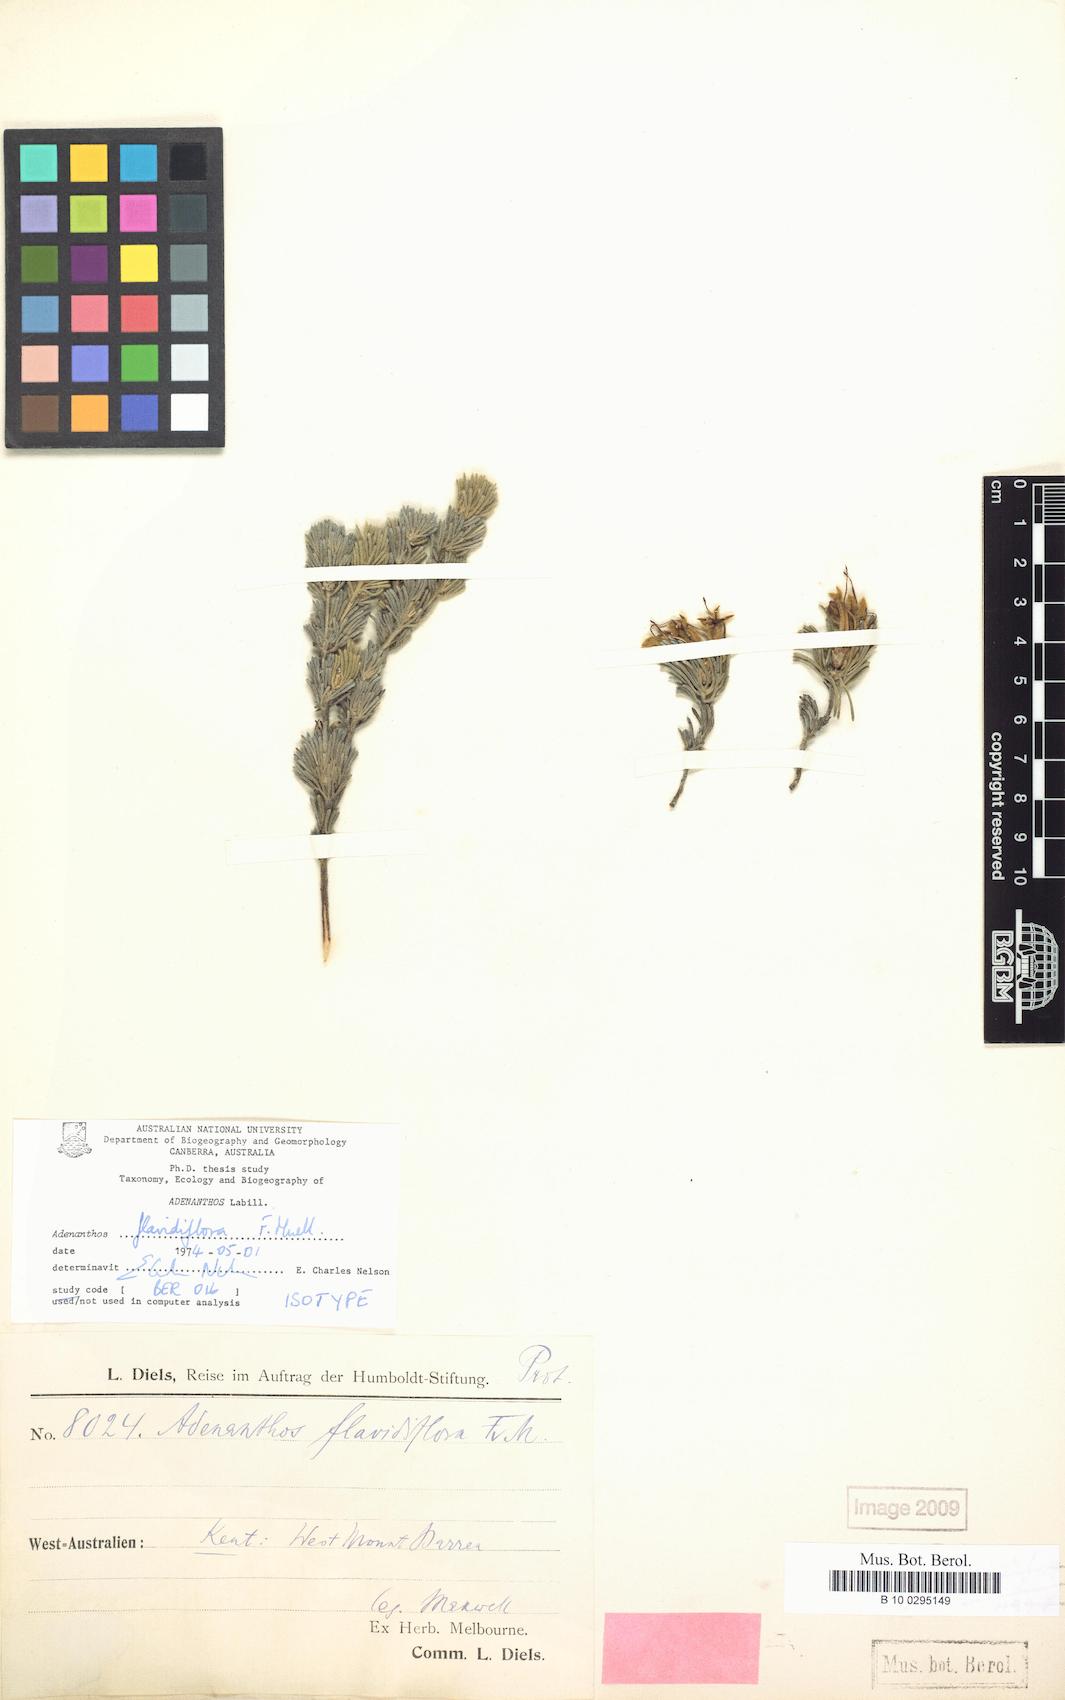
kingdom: Plantae
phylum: Tracheophyta
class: Magnoliopsida
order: Proteales
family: Proteaceae
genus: Adenanthos
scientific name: Adenanthos flavidiflorus
